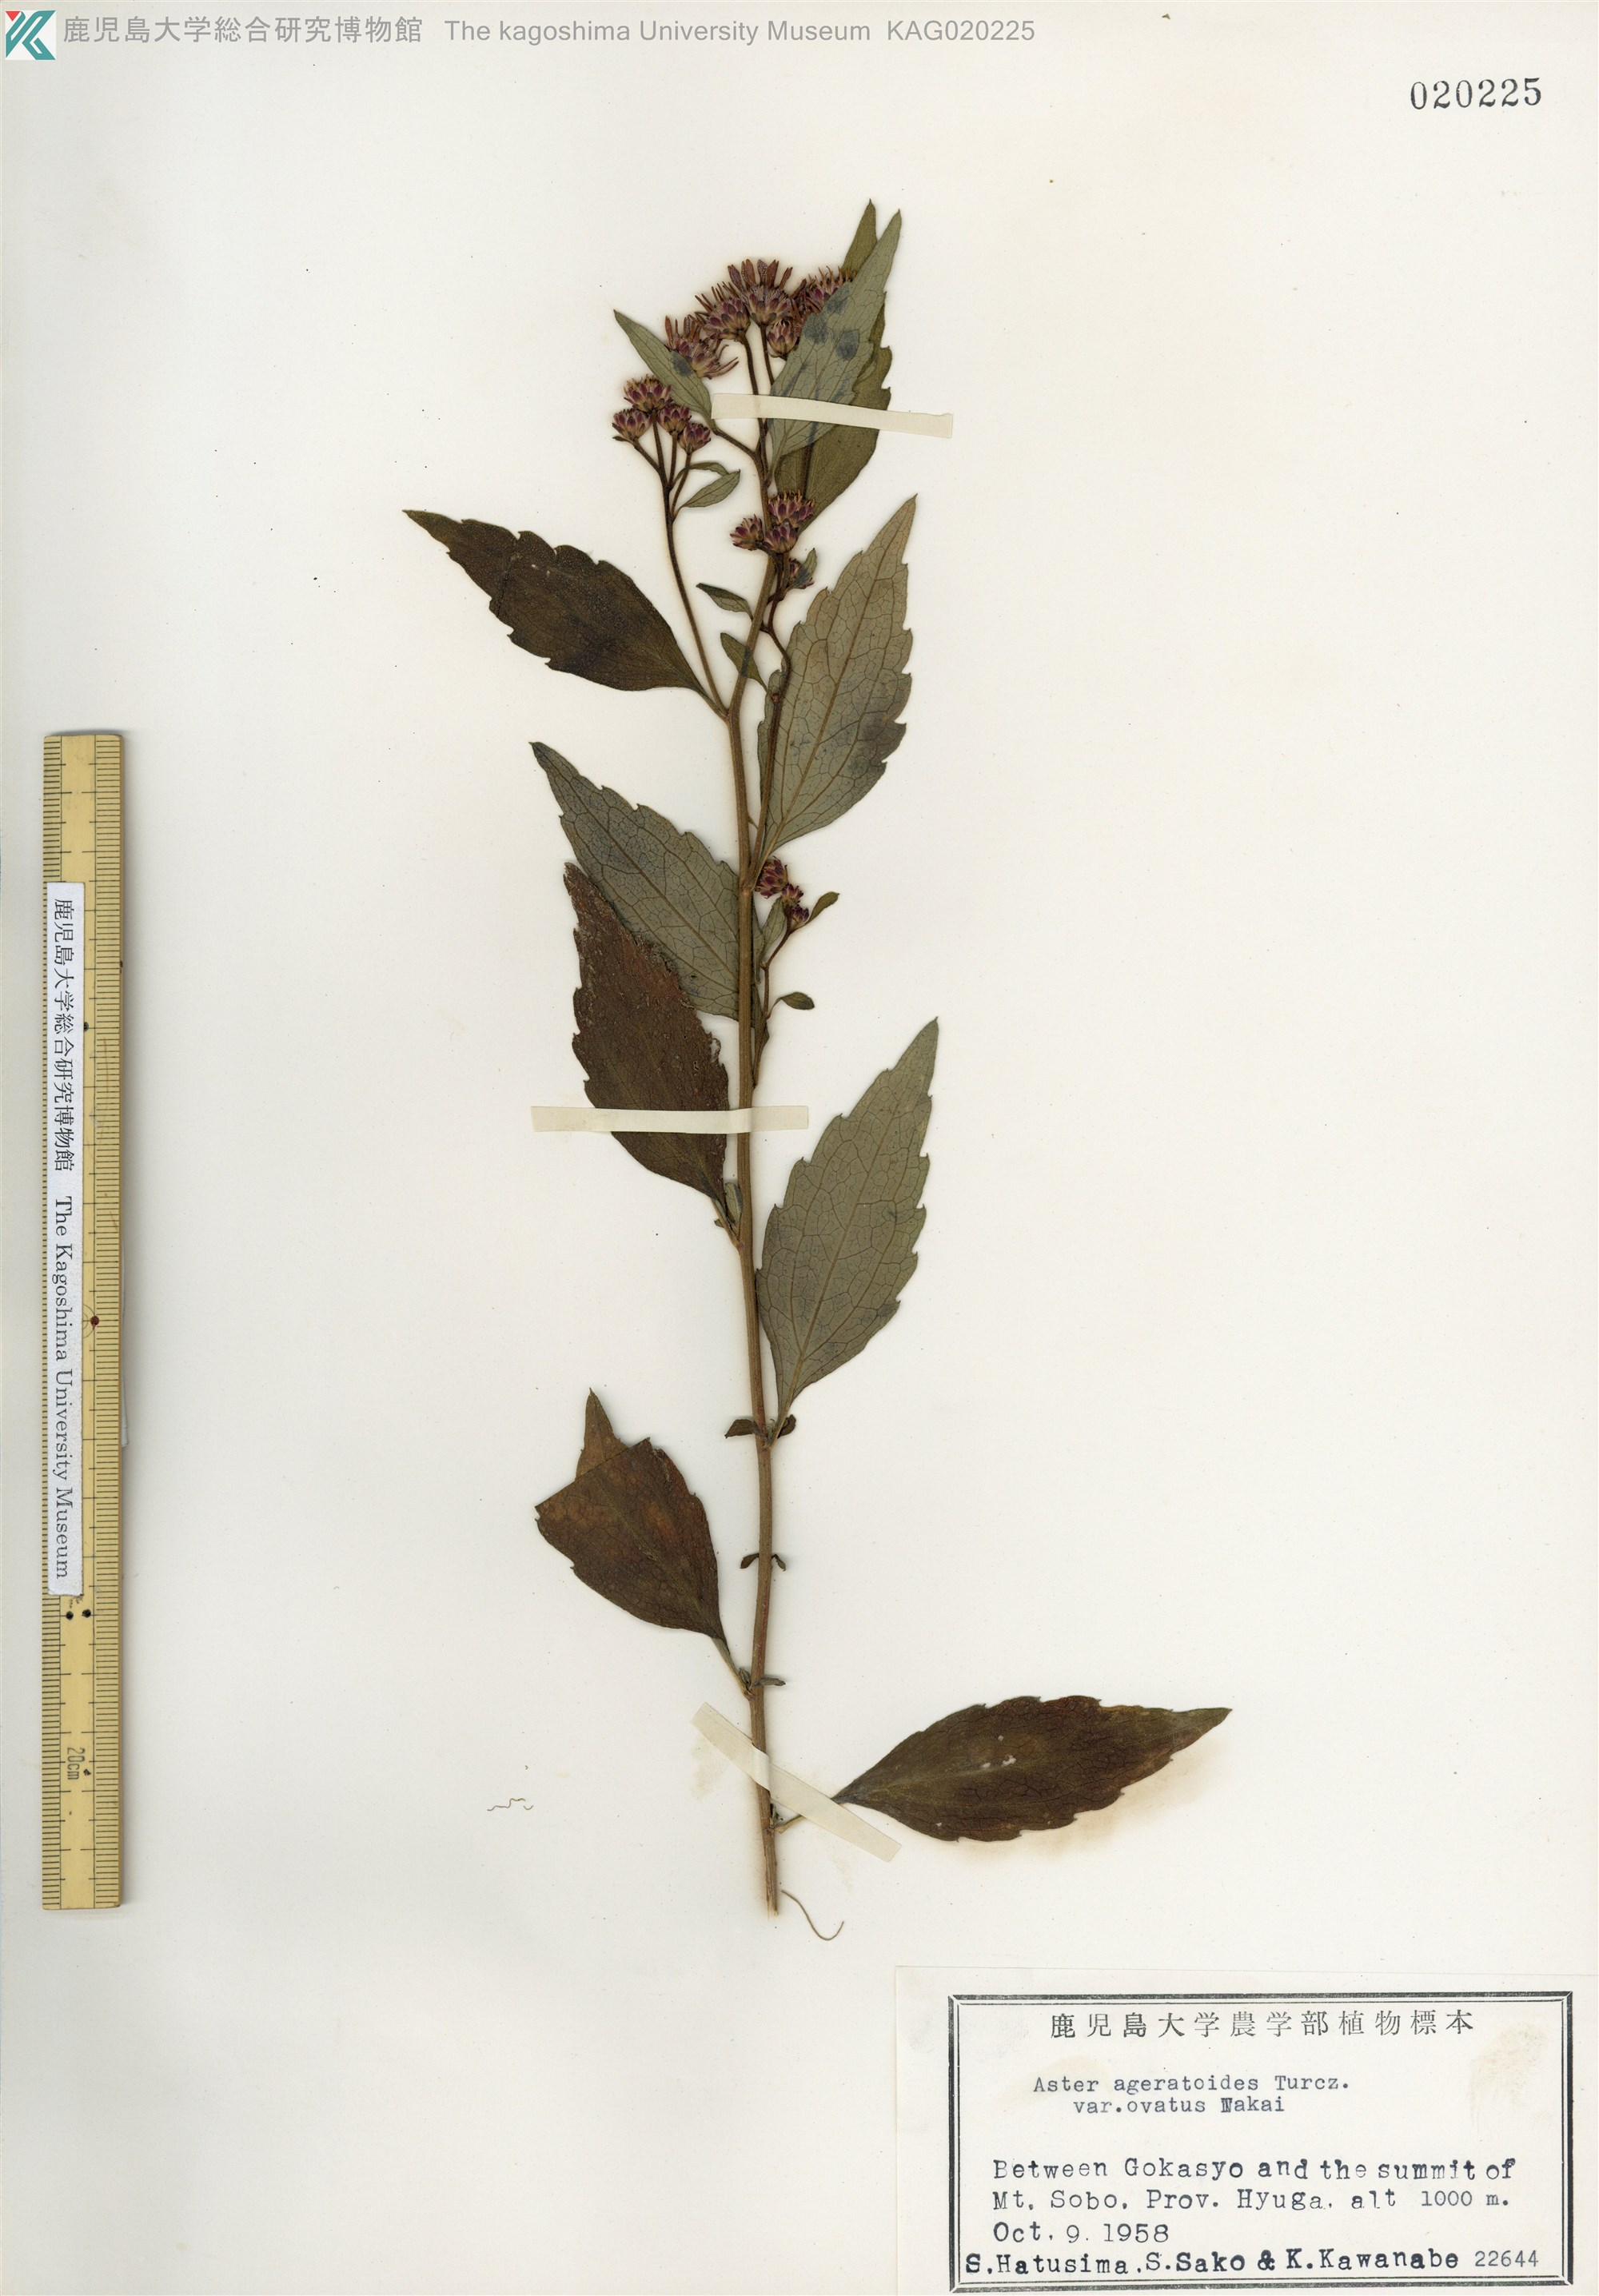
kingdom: Plantae
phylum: Tracheophyta
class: Magnoliopsida
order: Asterales
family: Asteraceae
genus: Aster
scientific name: Aster microcephalus
